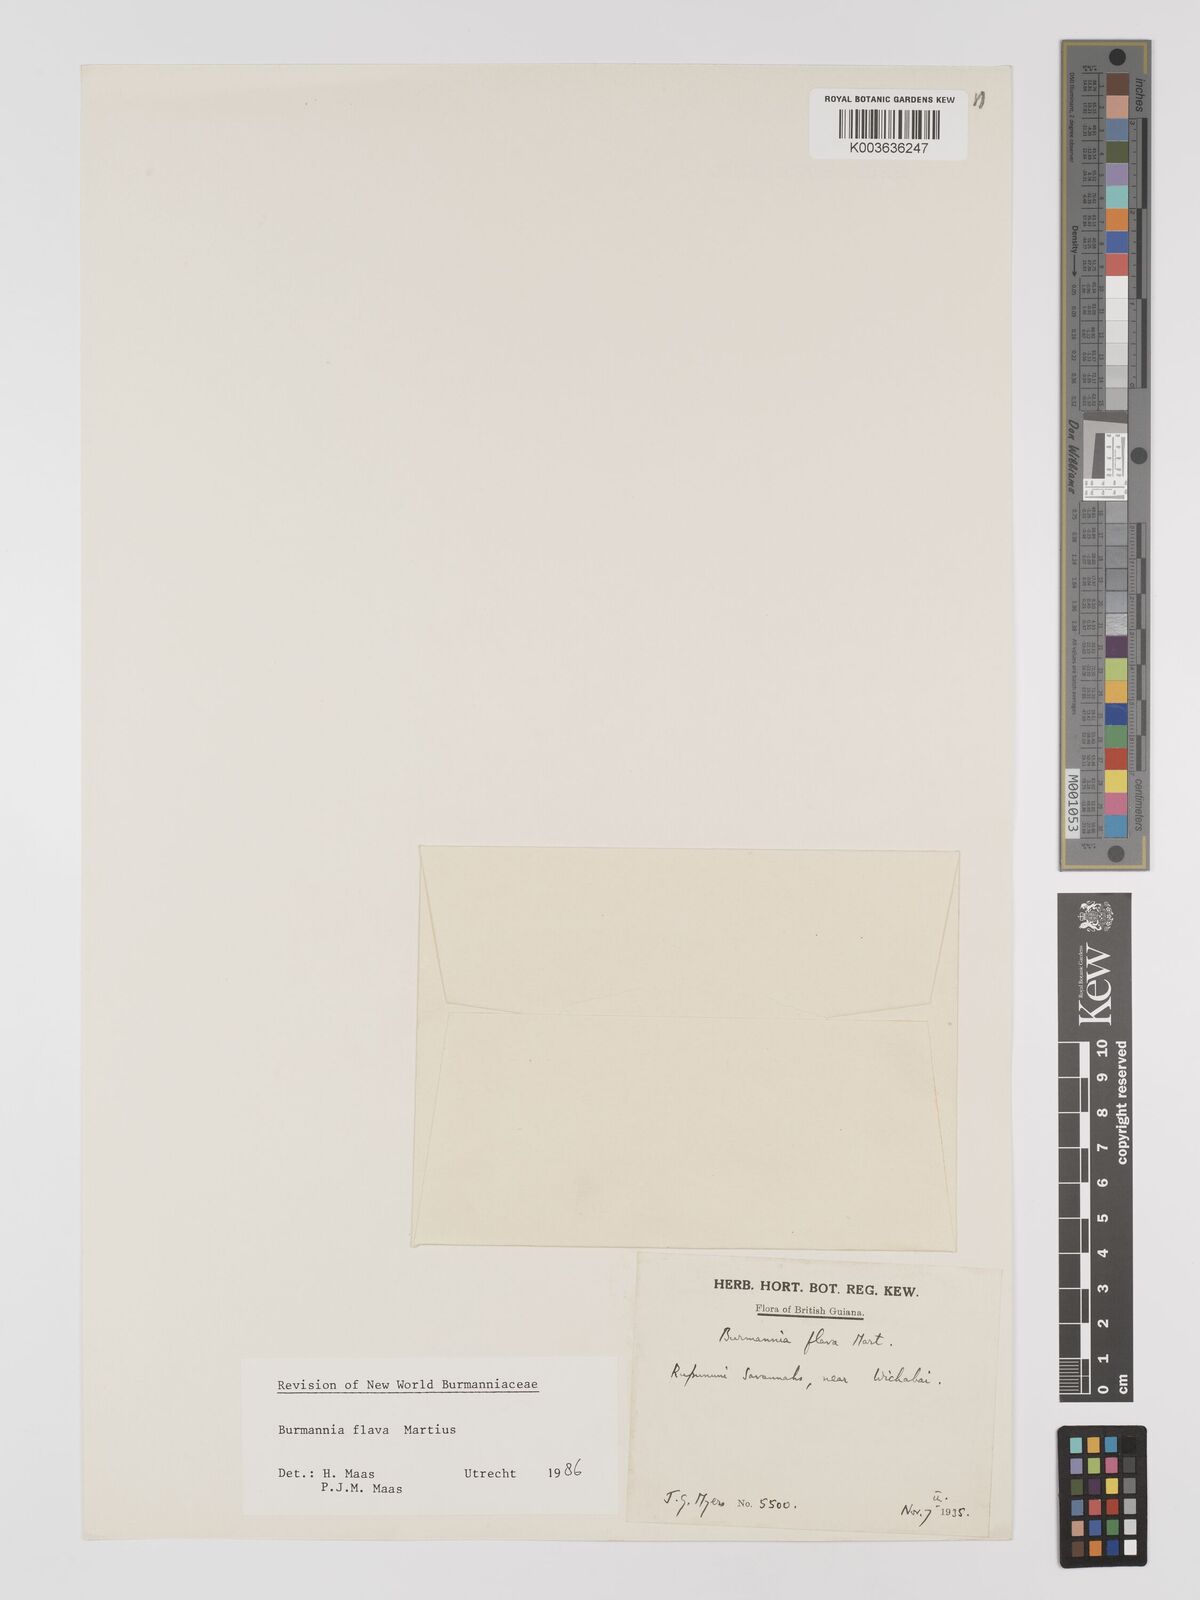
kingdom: Plantae
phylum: Tracheophyta
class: Liliopsida
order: Dioscoreales
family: Burmanniaceae
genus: Burmannia
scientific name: Burmannia flava
